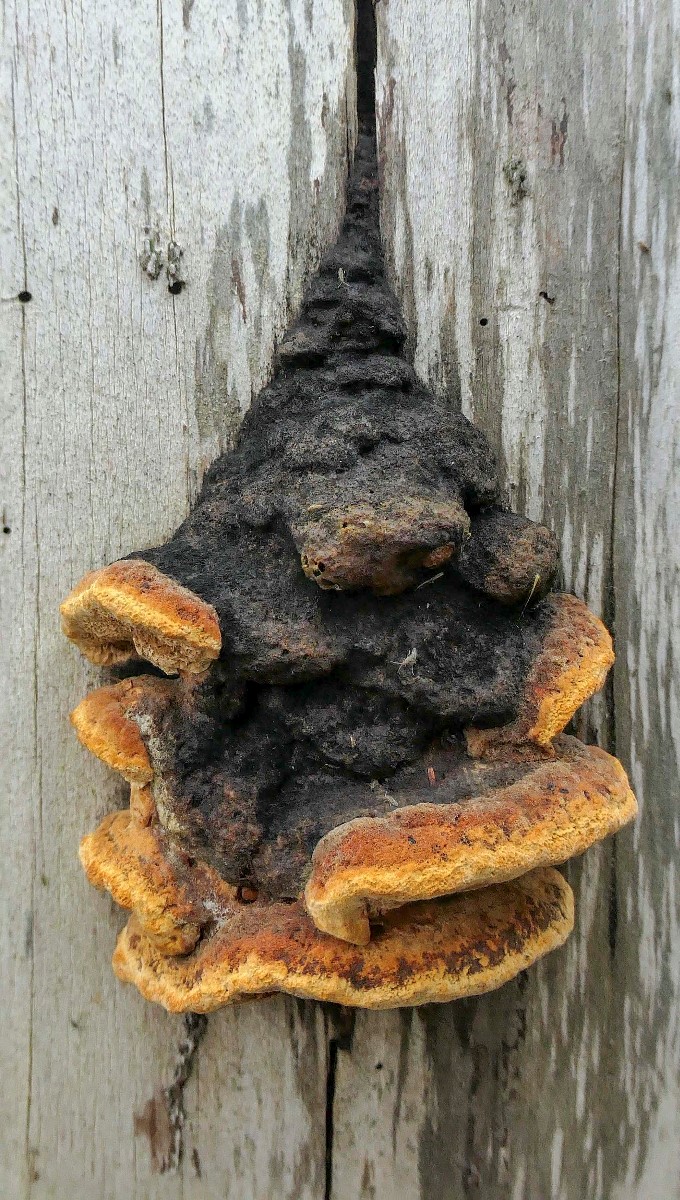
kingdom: Fungi
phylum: Basidiomycota
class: Agaricomycetes
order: Gloeophyllales
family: Gloeophyllaceae
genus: Gloeophyllum
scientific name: Gloeophyllum odoratum
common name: duftende korkhat
